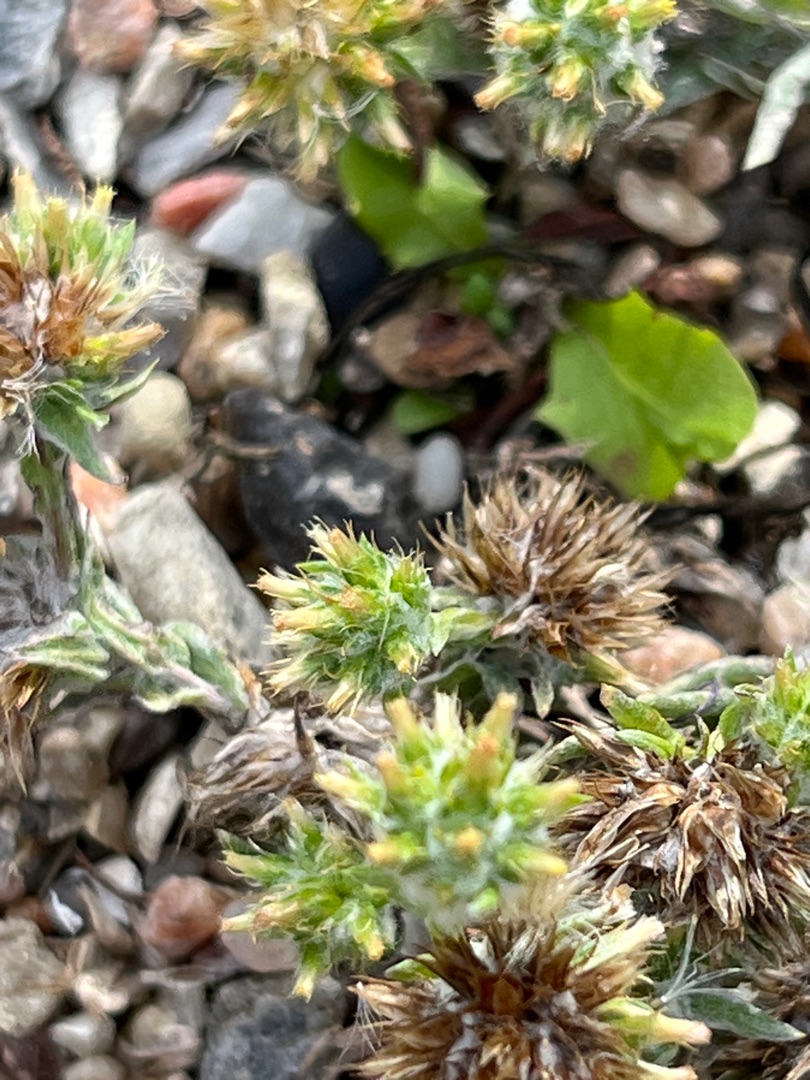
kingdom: Plantae
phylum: Tracheophyta
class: Magnoliopsida
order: Asterales
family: Asteraceae
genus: Filago
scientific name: Filago germanica
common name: Kugle-museurt
